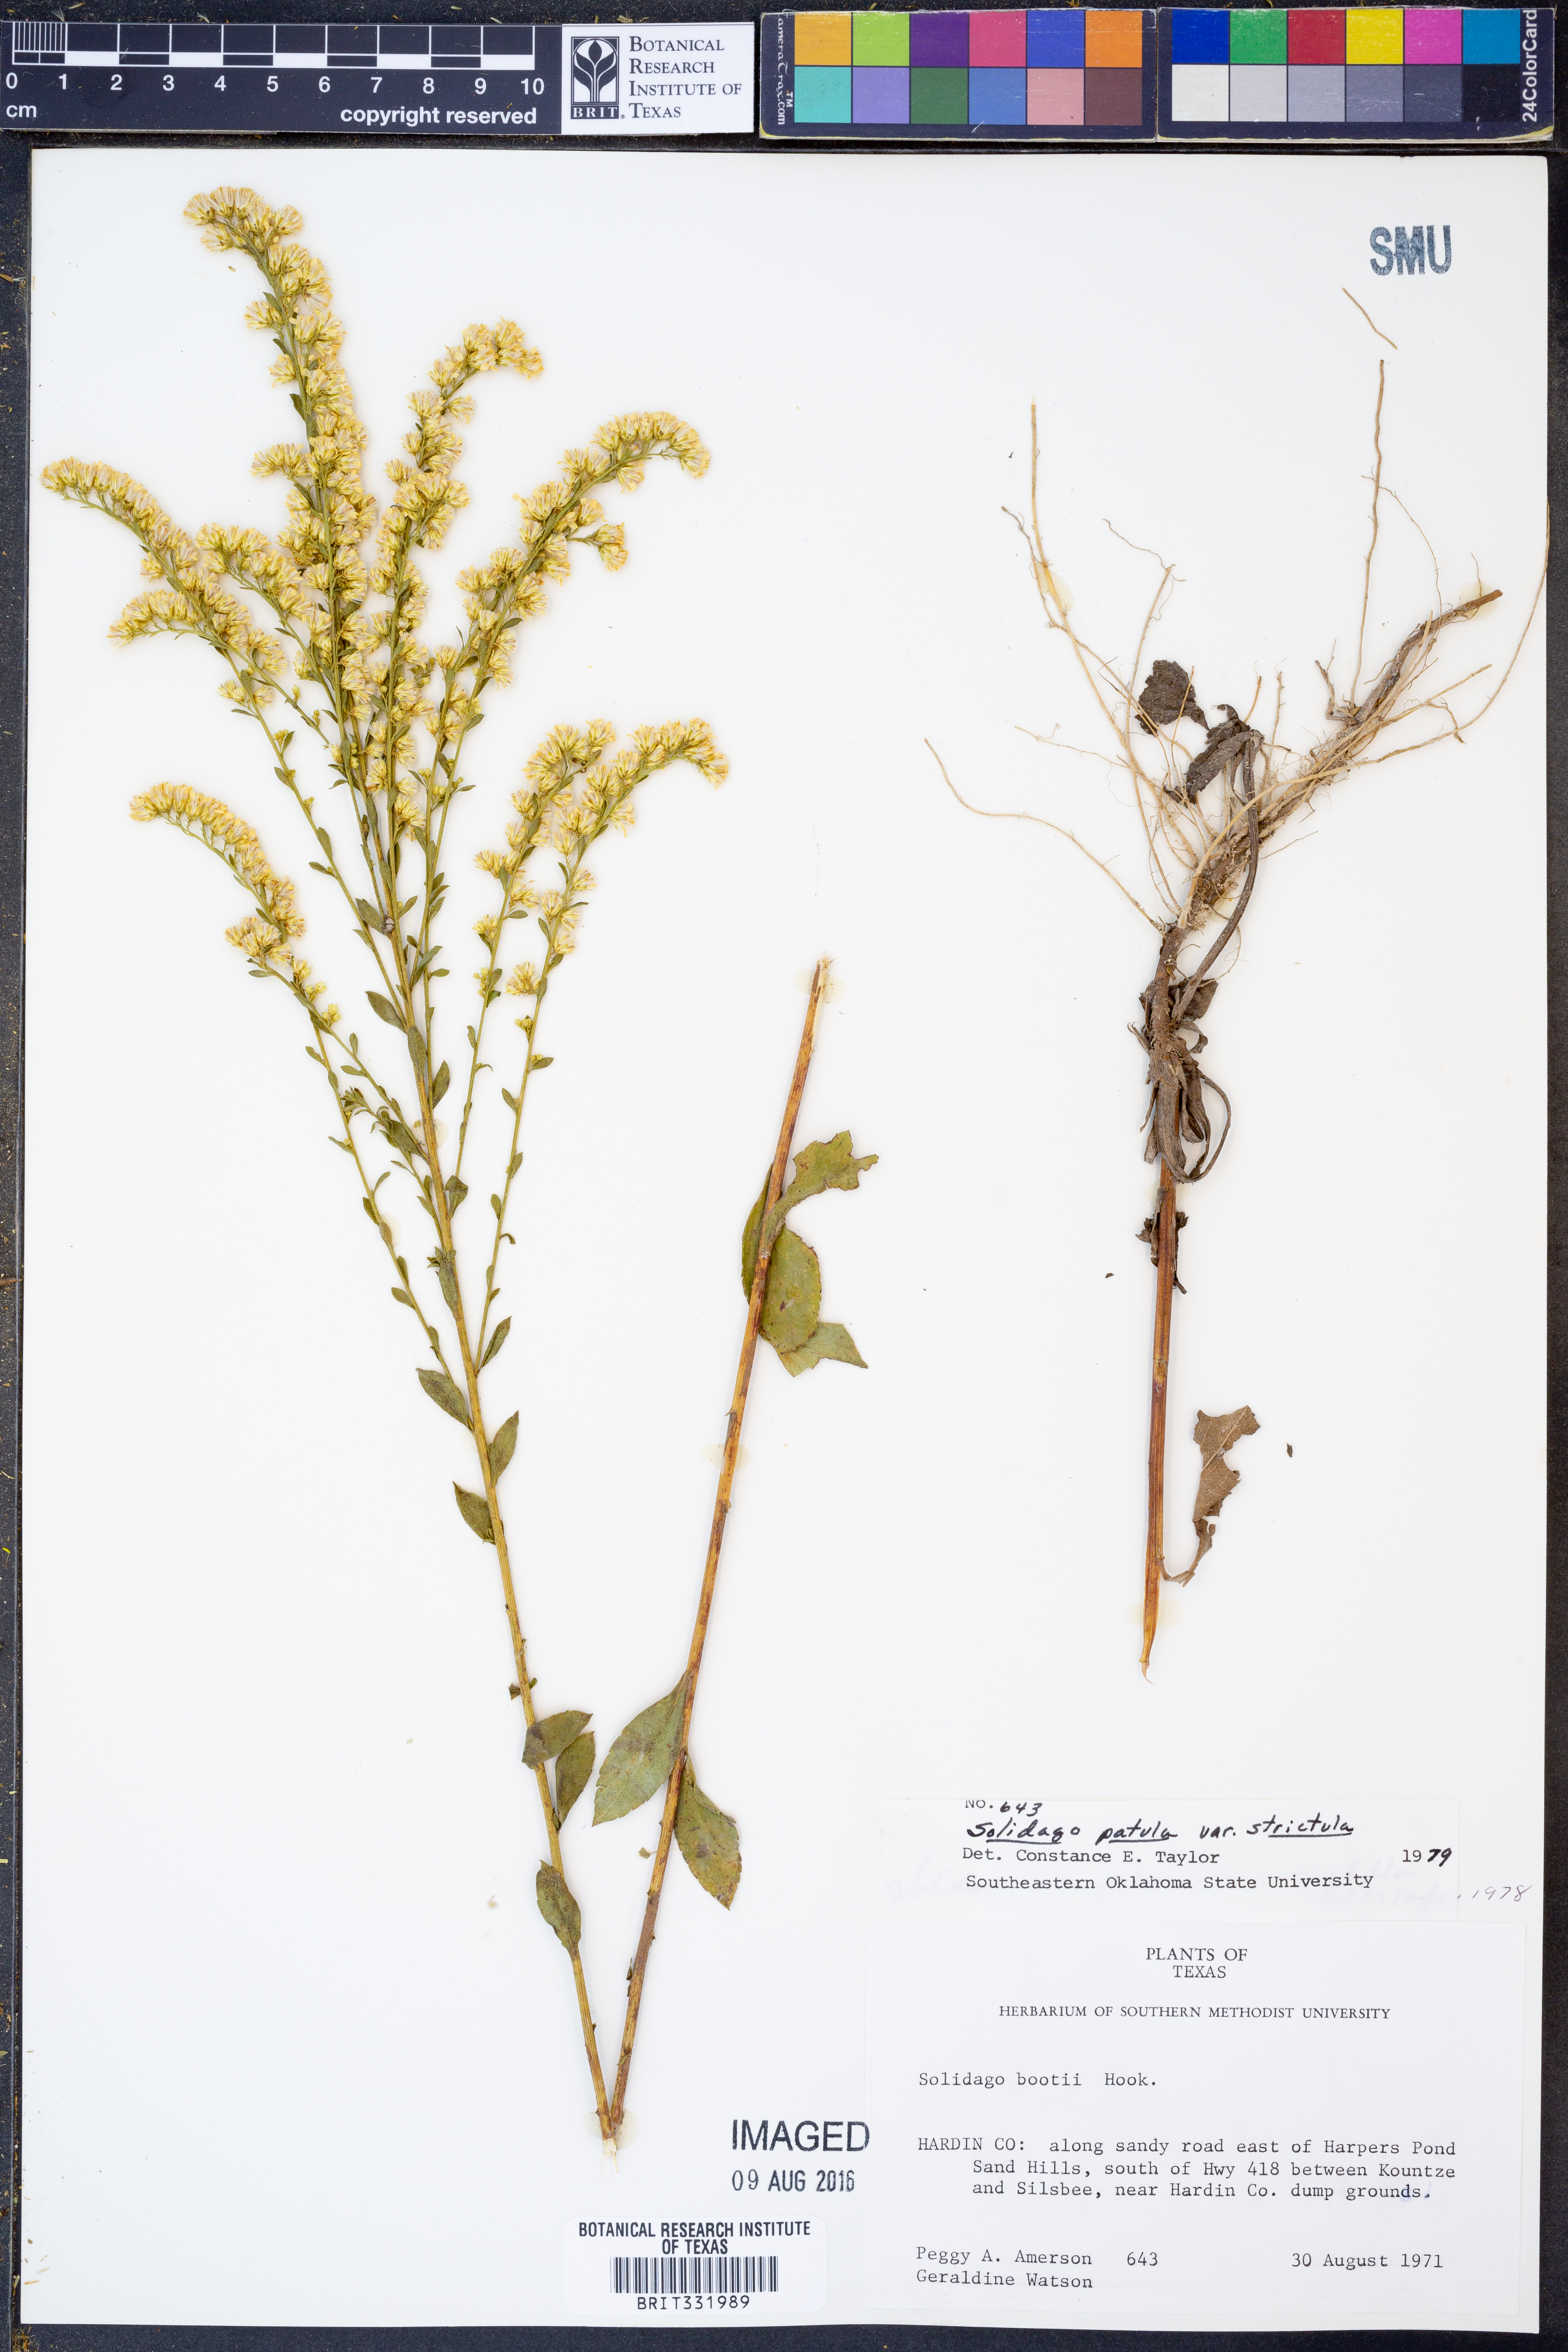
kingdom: Plantae
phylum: Tracheophyta
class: Magnoliopsida
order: Asterales
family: Asteraceae
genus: Solidago
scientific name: Solidago salicina
